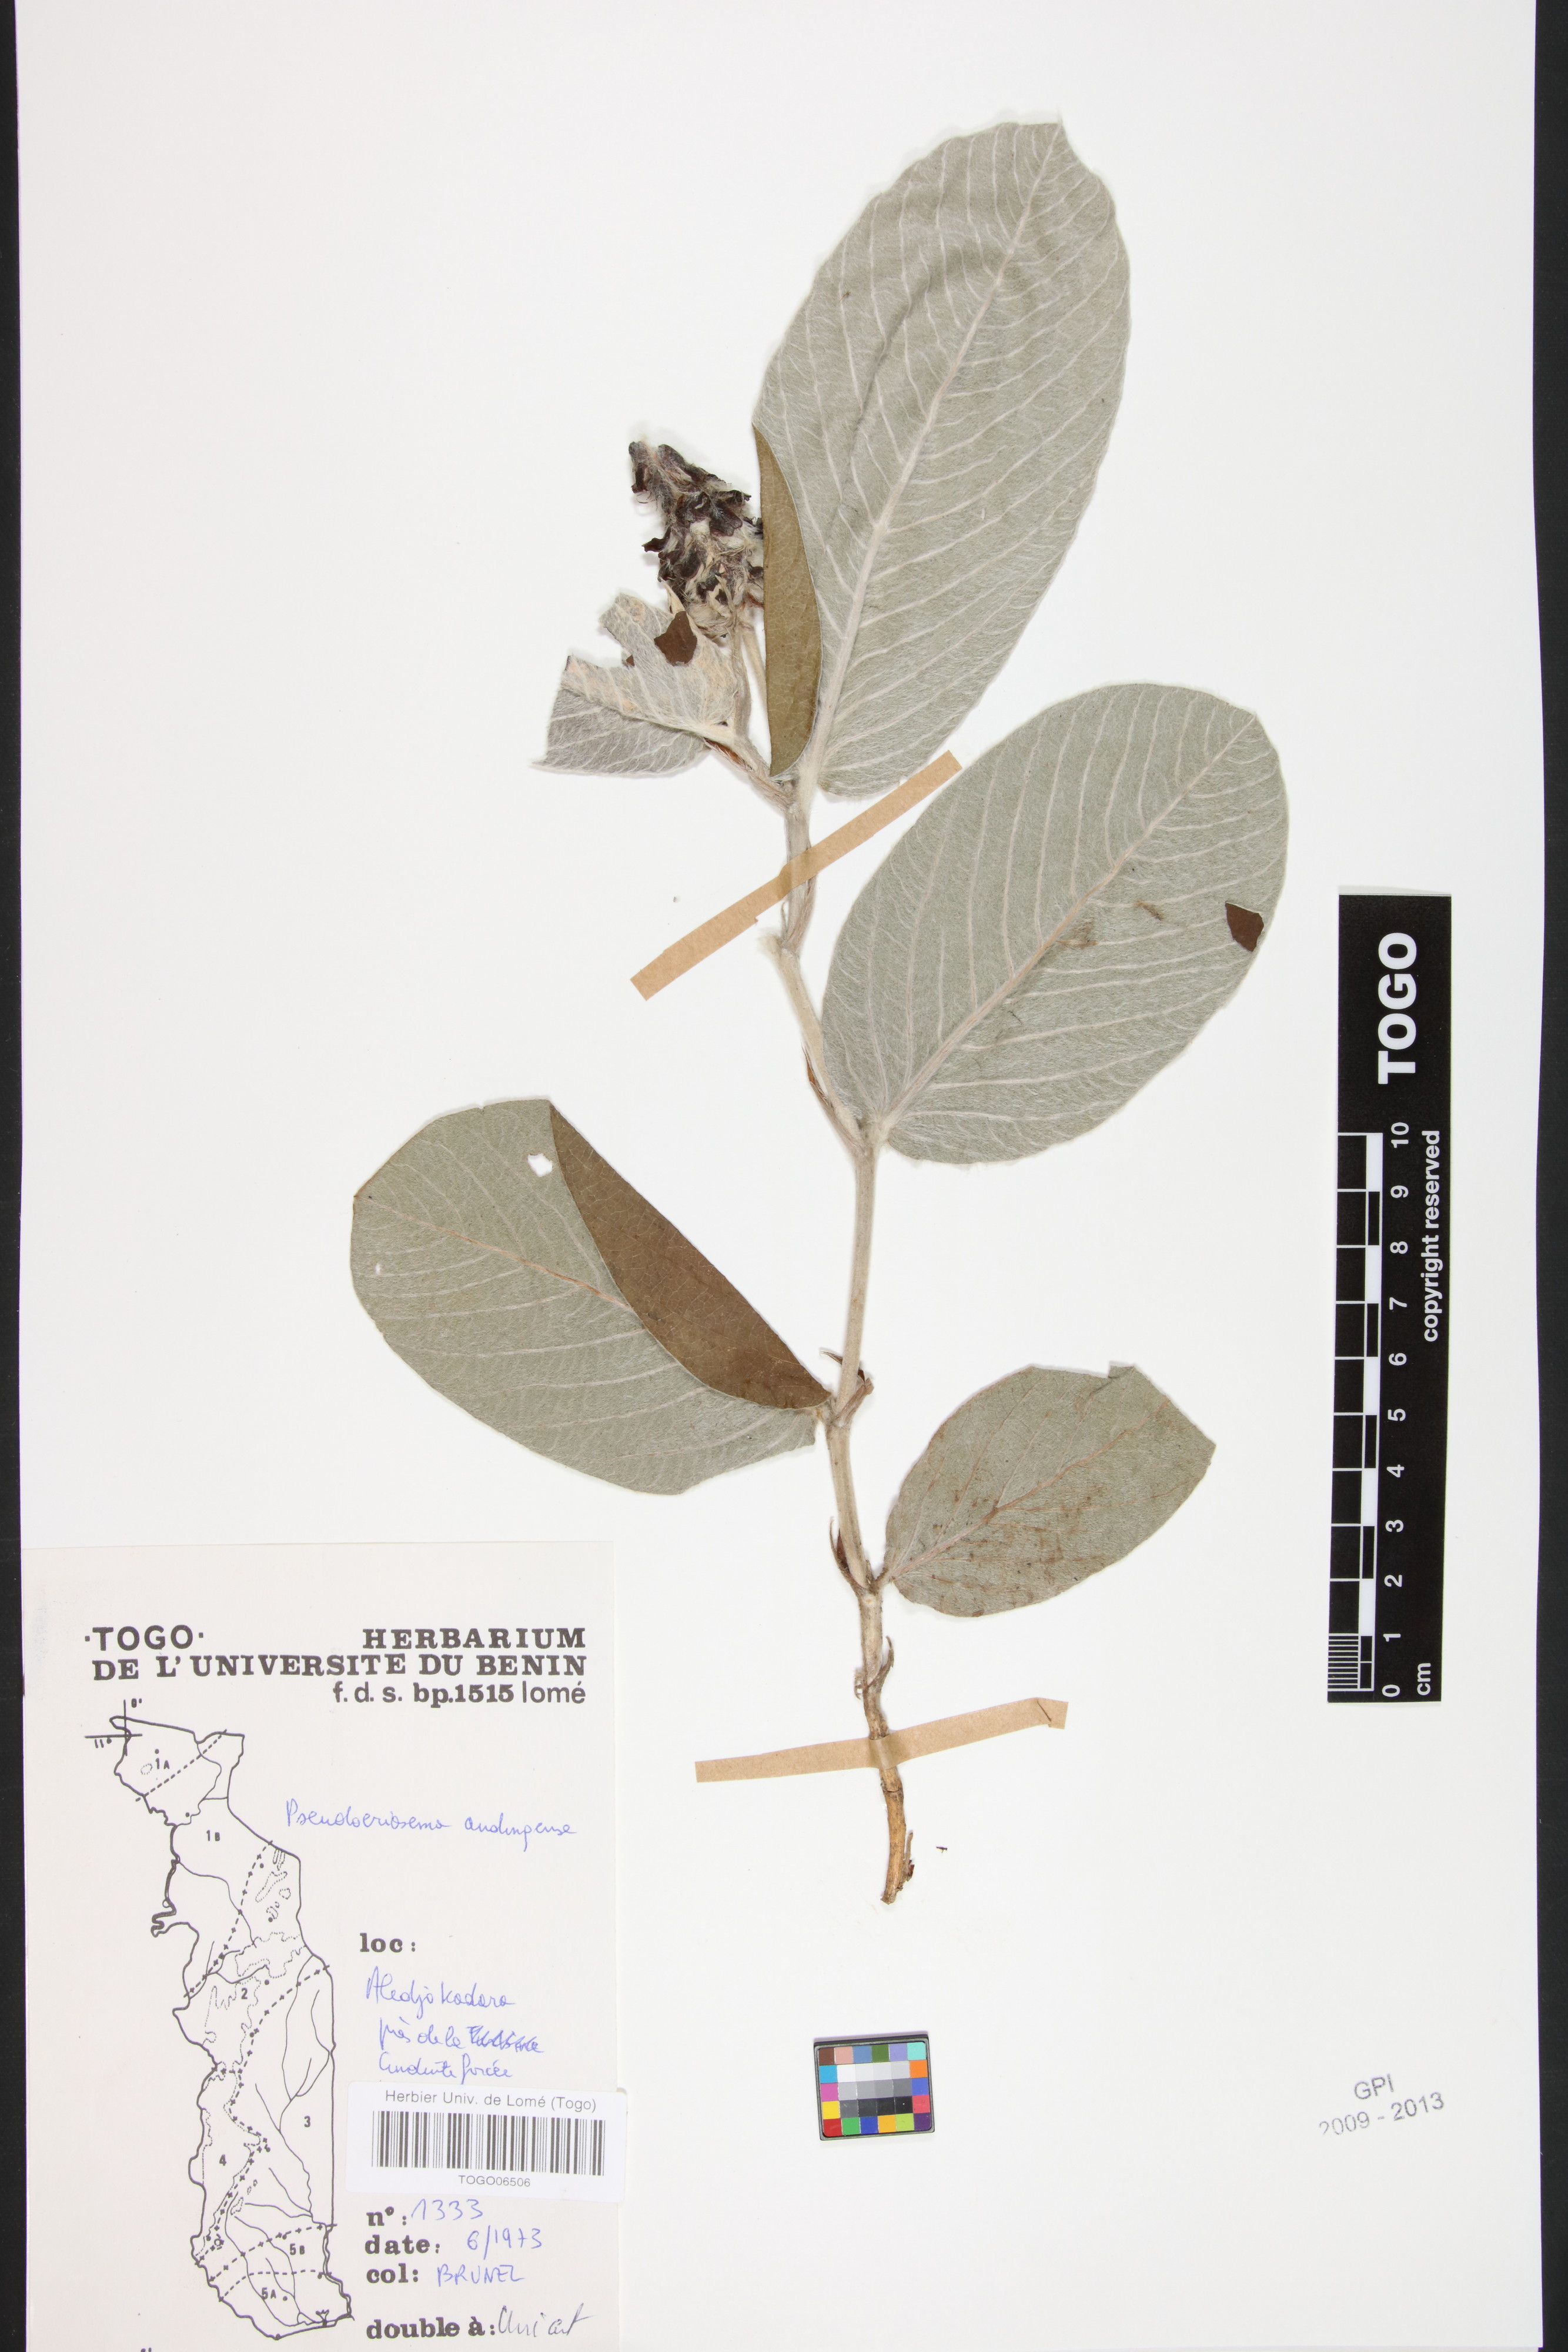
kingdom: Plantae
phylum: Tracheophyta
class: Magnoliopsida
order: Fabales
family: Fabaceae
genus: Pseudoeriosema
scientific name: Pseudoeriosema andongense
